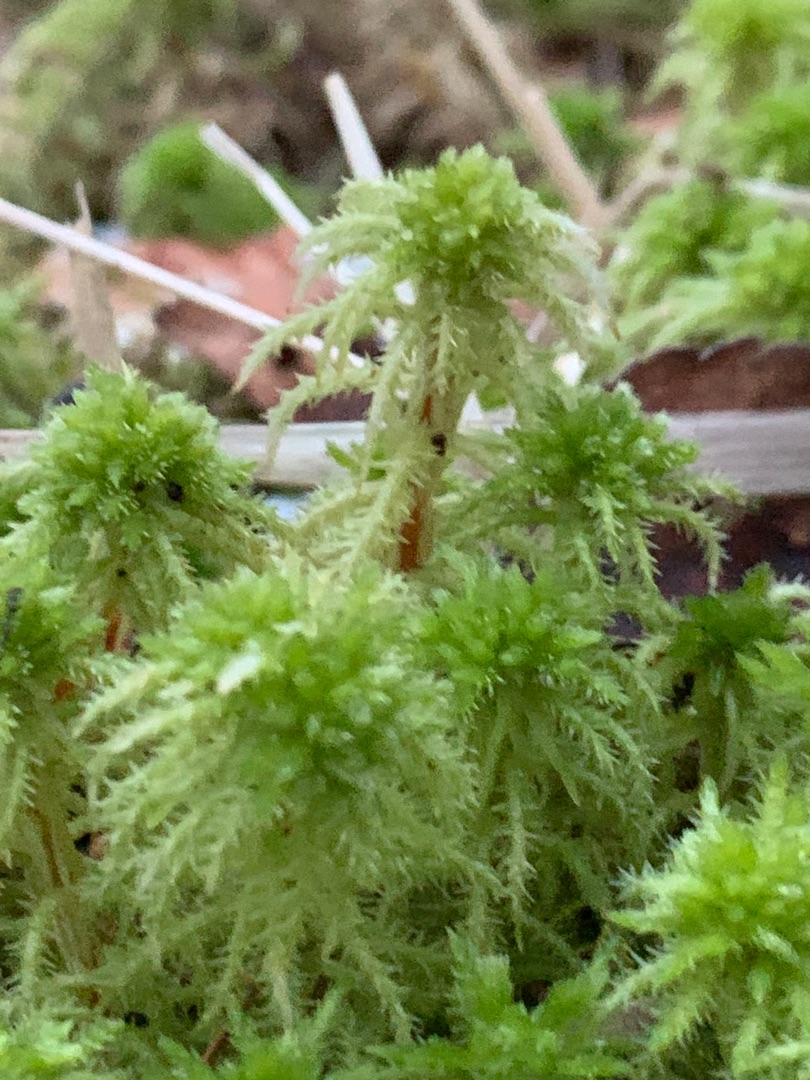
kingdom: Plantae
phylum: Bryophyta
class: Sphagnopsida
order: Sphagnales
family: Sphagnaceae
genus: Sphagnum
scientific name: Sphagnum squarrosum
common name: Udspærret tørvemos
